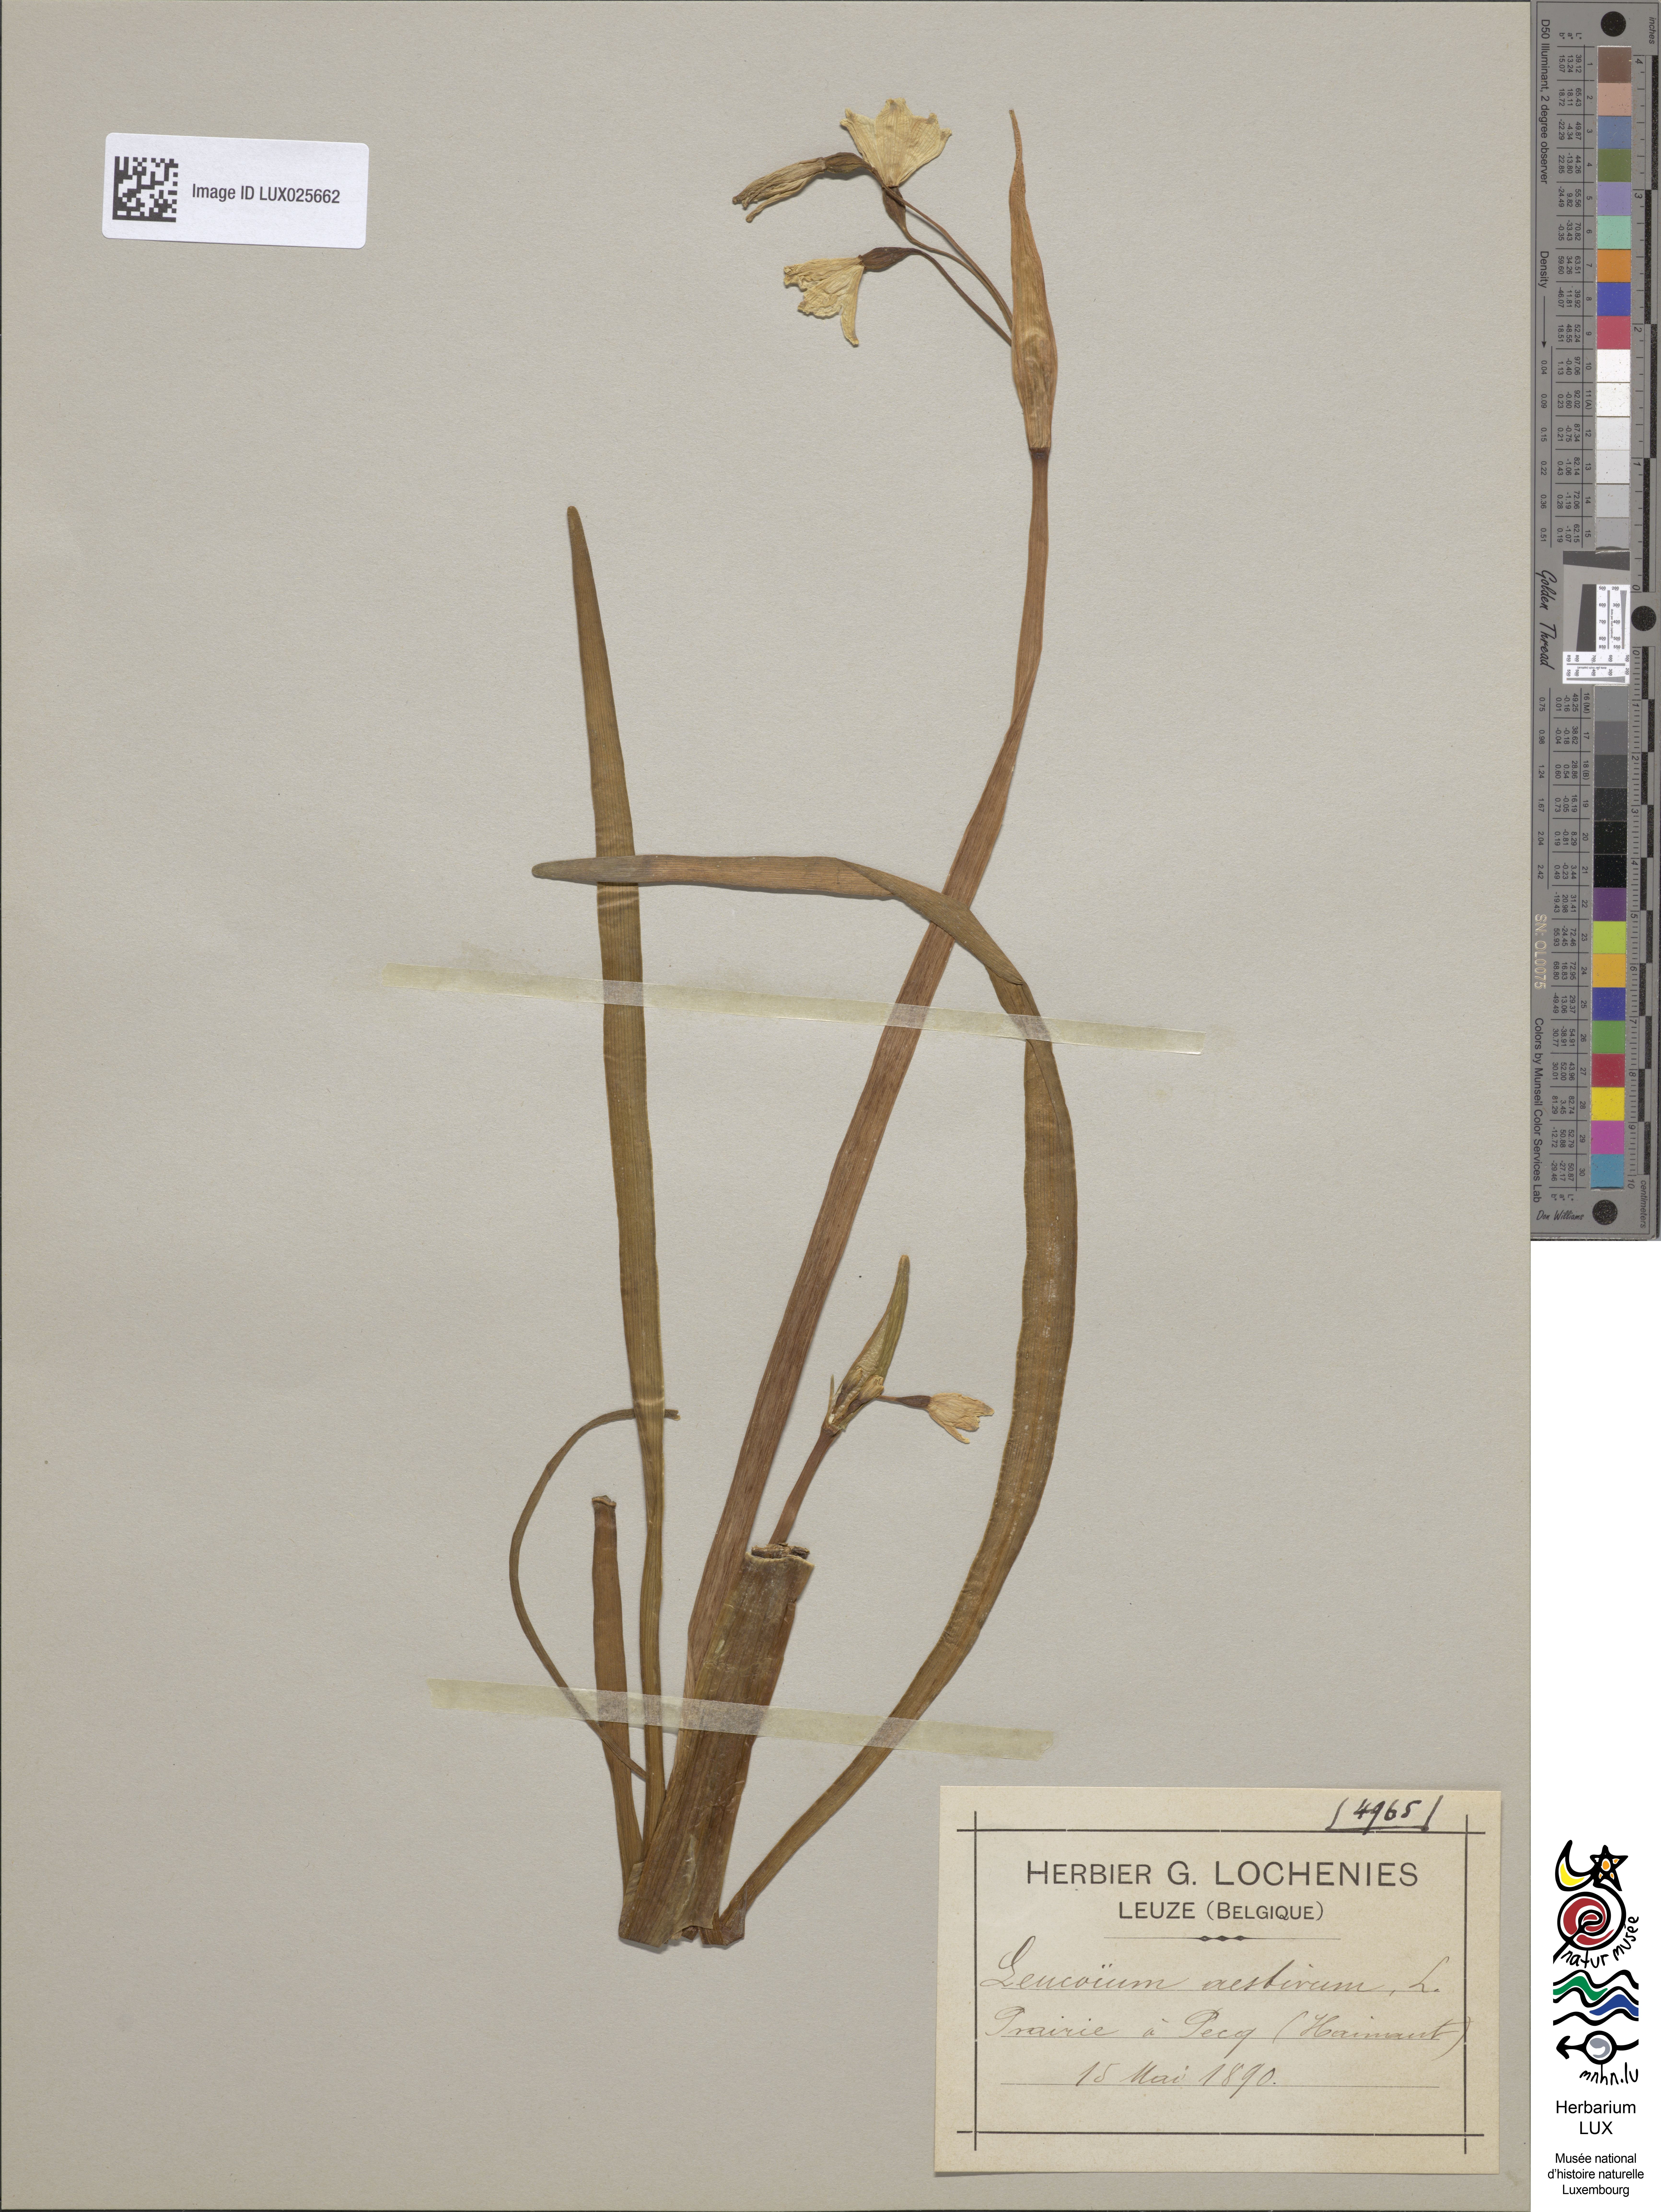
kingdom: Plantae
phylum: Tracheophyta
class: Liliopsida
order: Asparagales
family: Amaryllidaceae
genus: Leucojum
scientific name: Leucojum aestivum
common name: Summer snowflake
